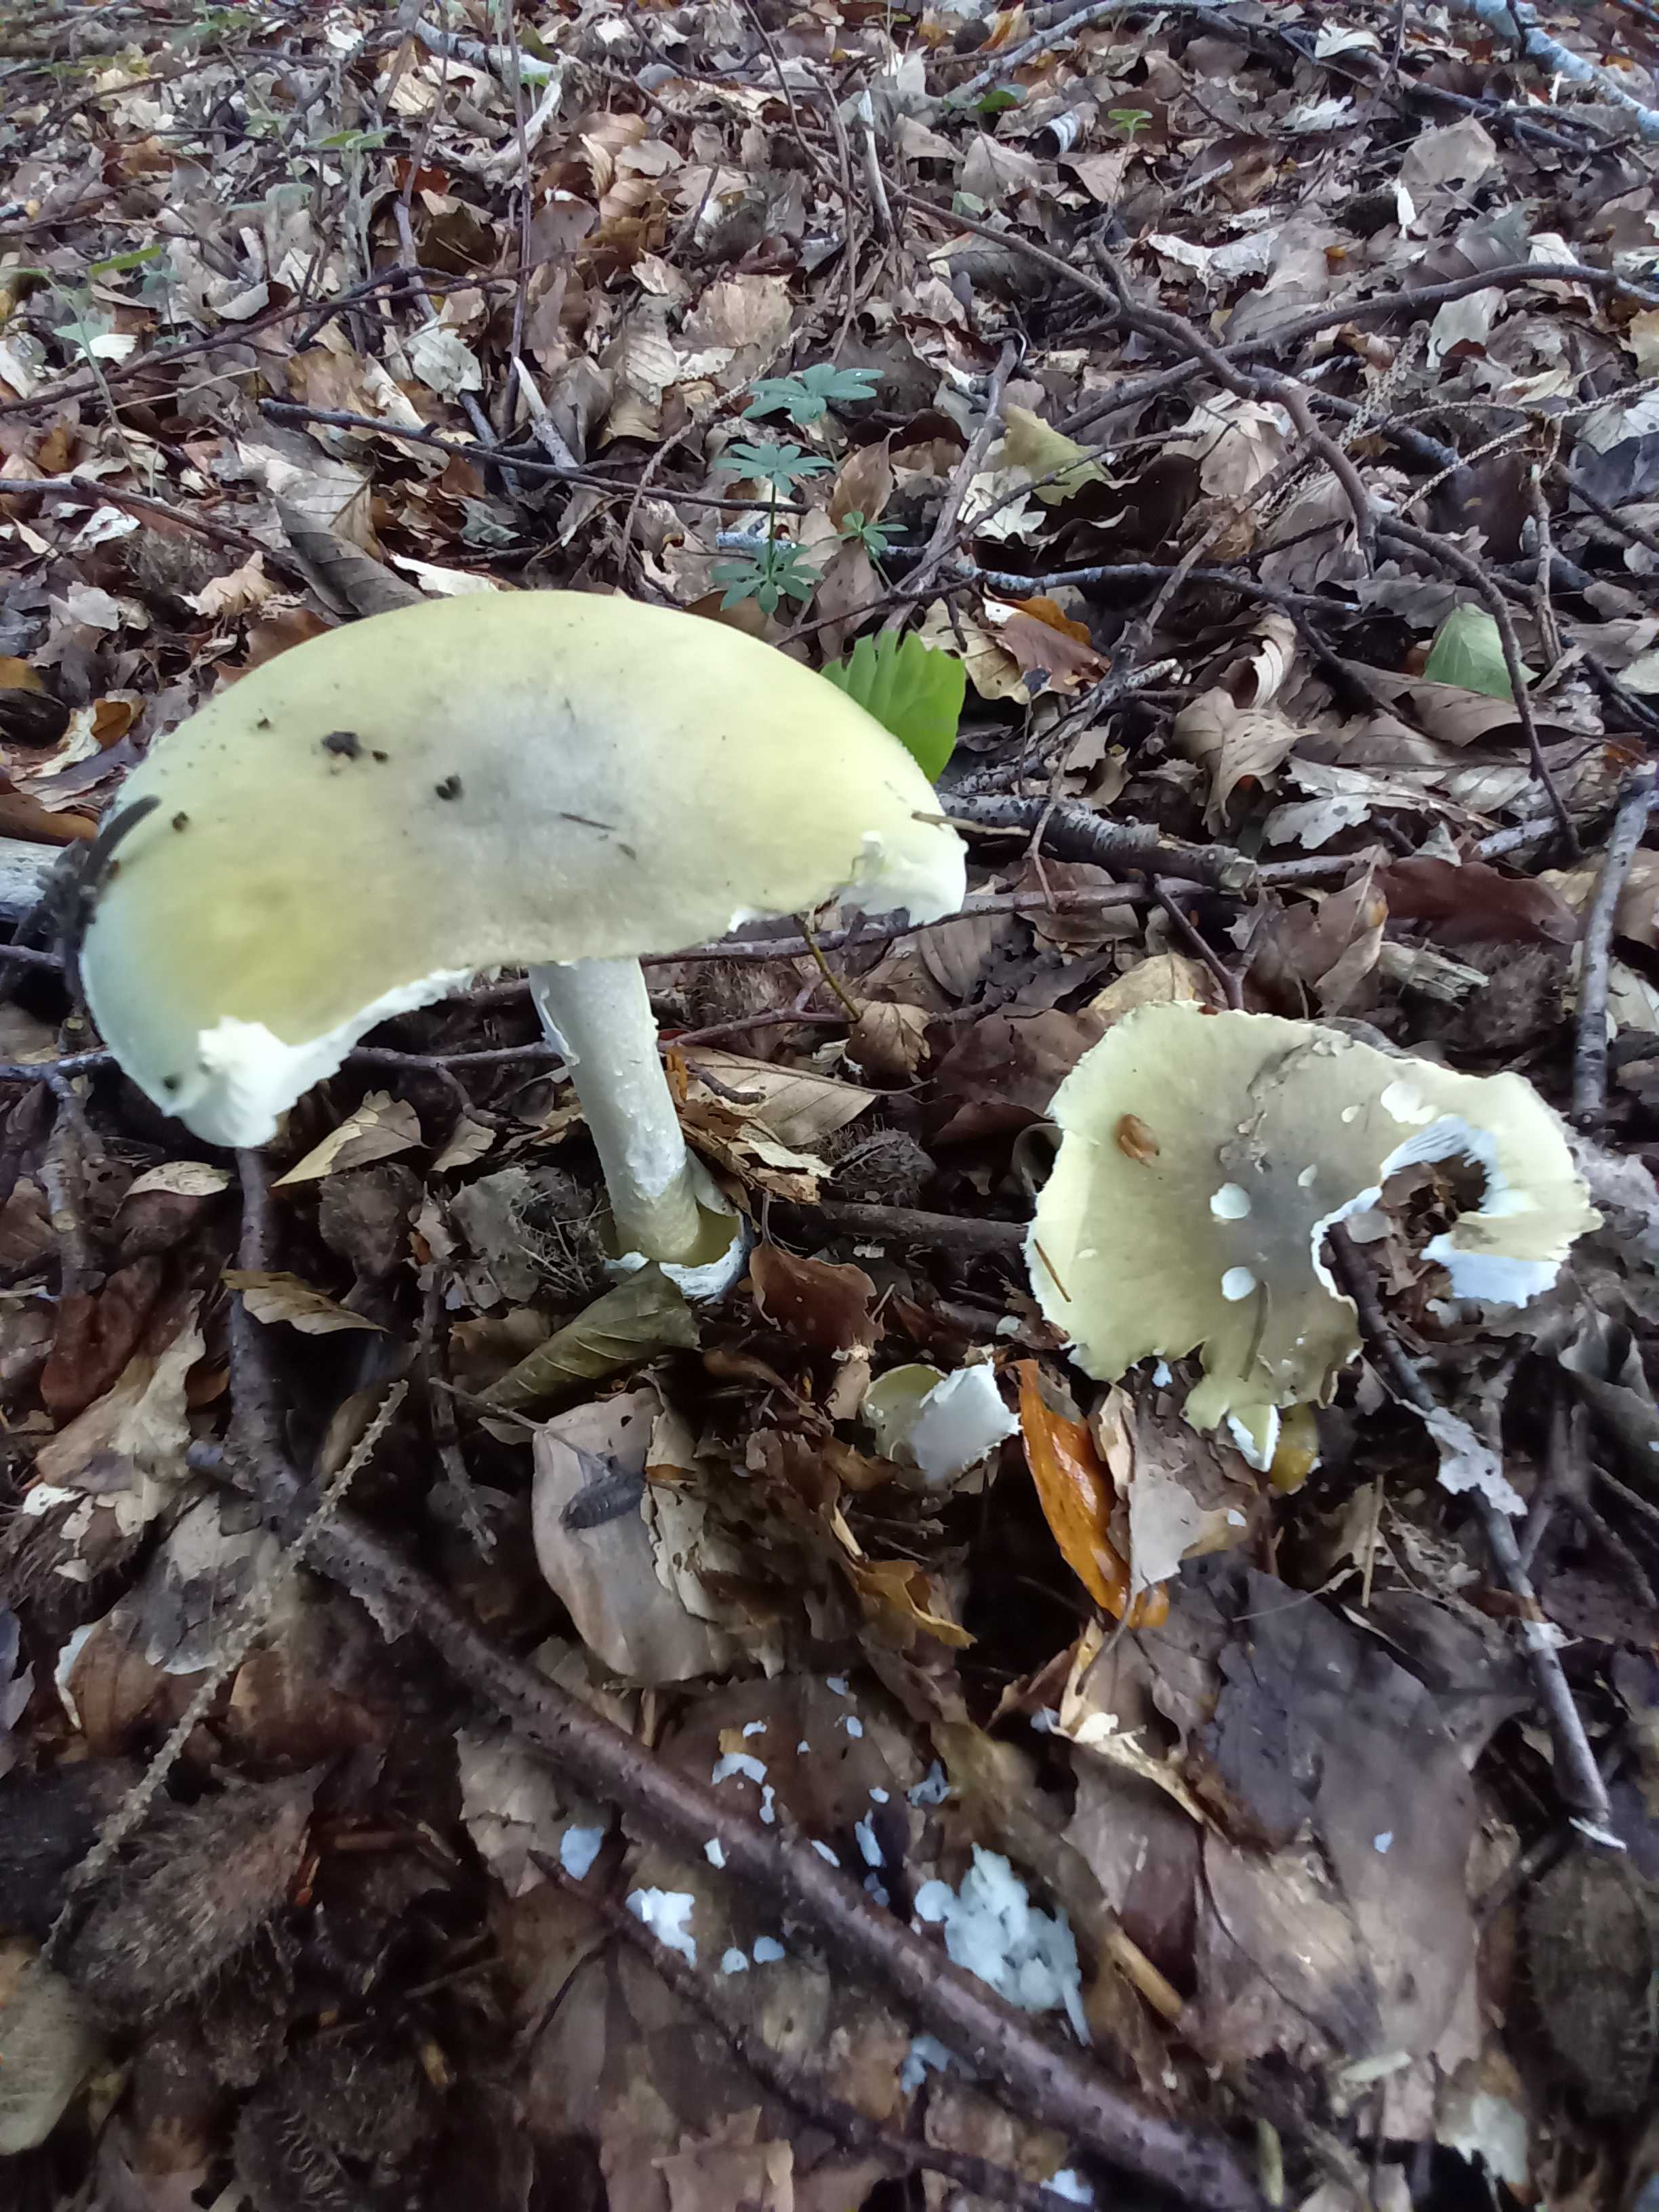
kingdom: Fungi
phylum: Basidiomycota
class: Agaricomycetes
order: Agaricales
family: Amanitaceae
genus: Amanita
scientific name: Amanita phalloides
